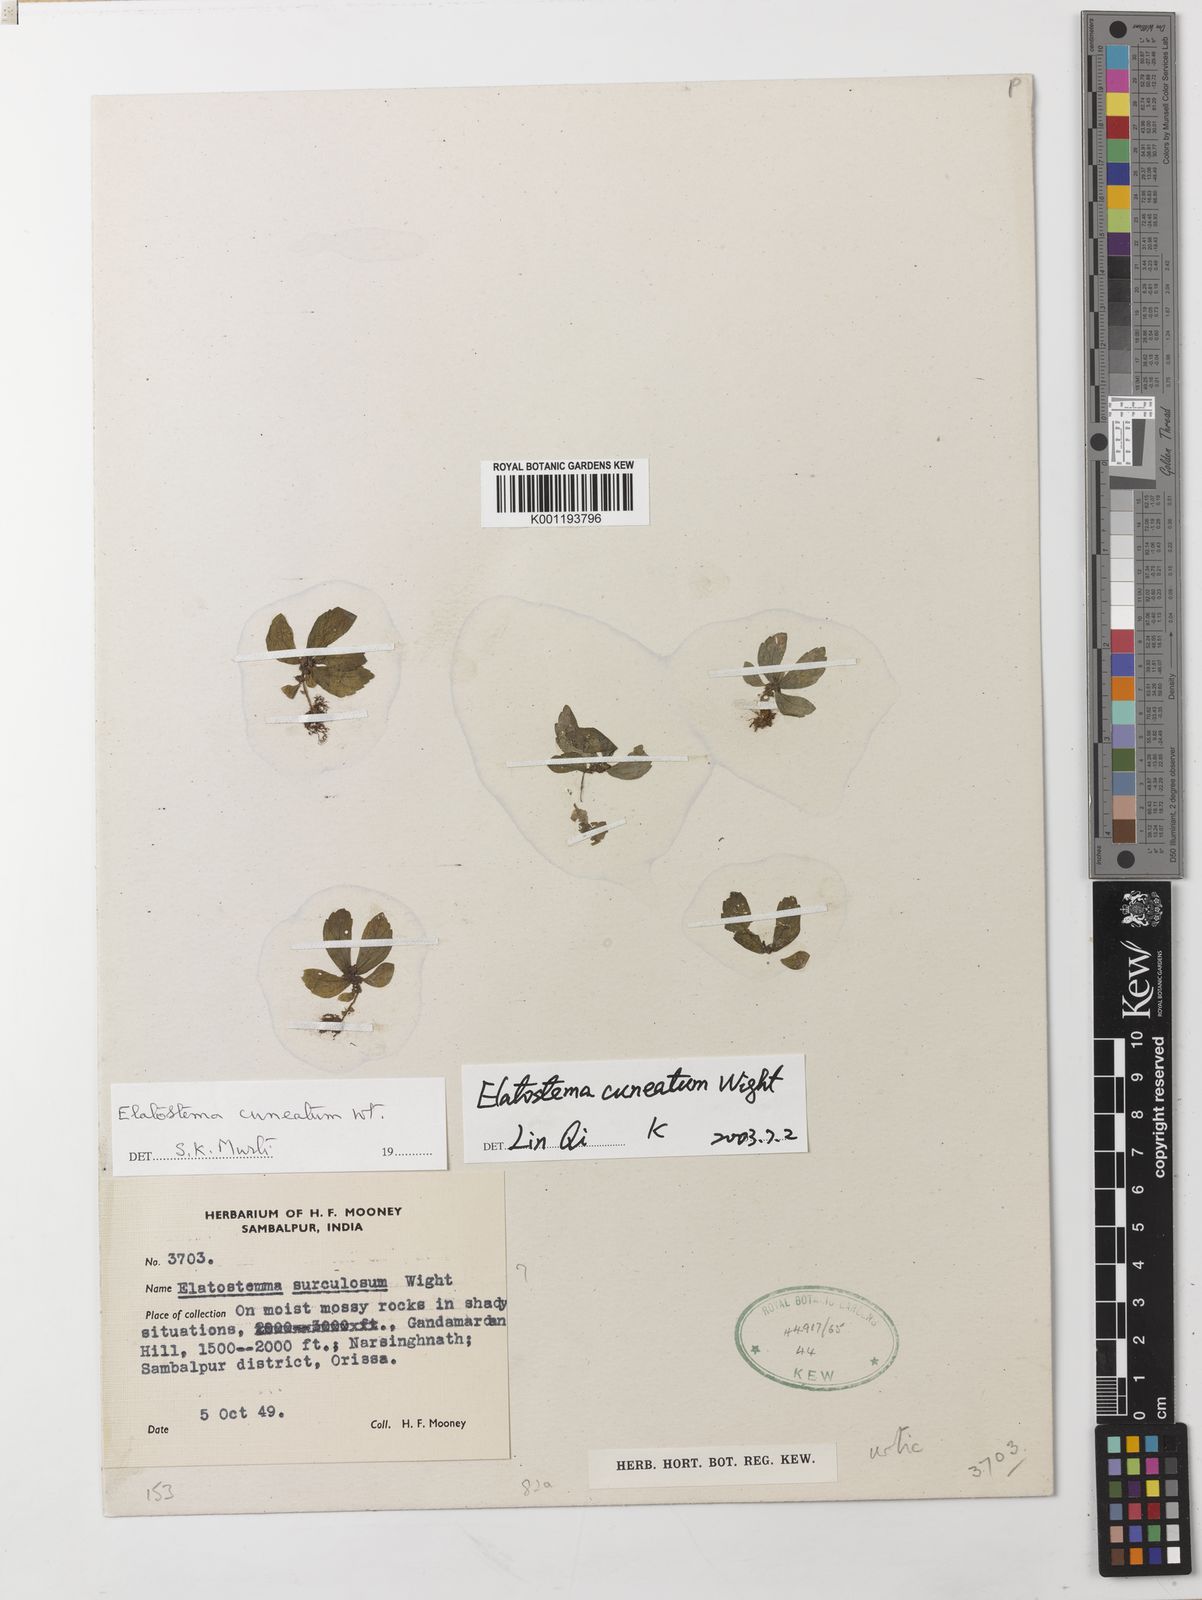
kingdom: Plantae
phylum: Tracheophyta
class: Magnoliopsida
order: Rosales
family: Urticaceae
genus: Elatostema
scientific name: Elatostema cuneatum
